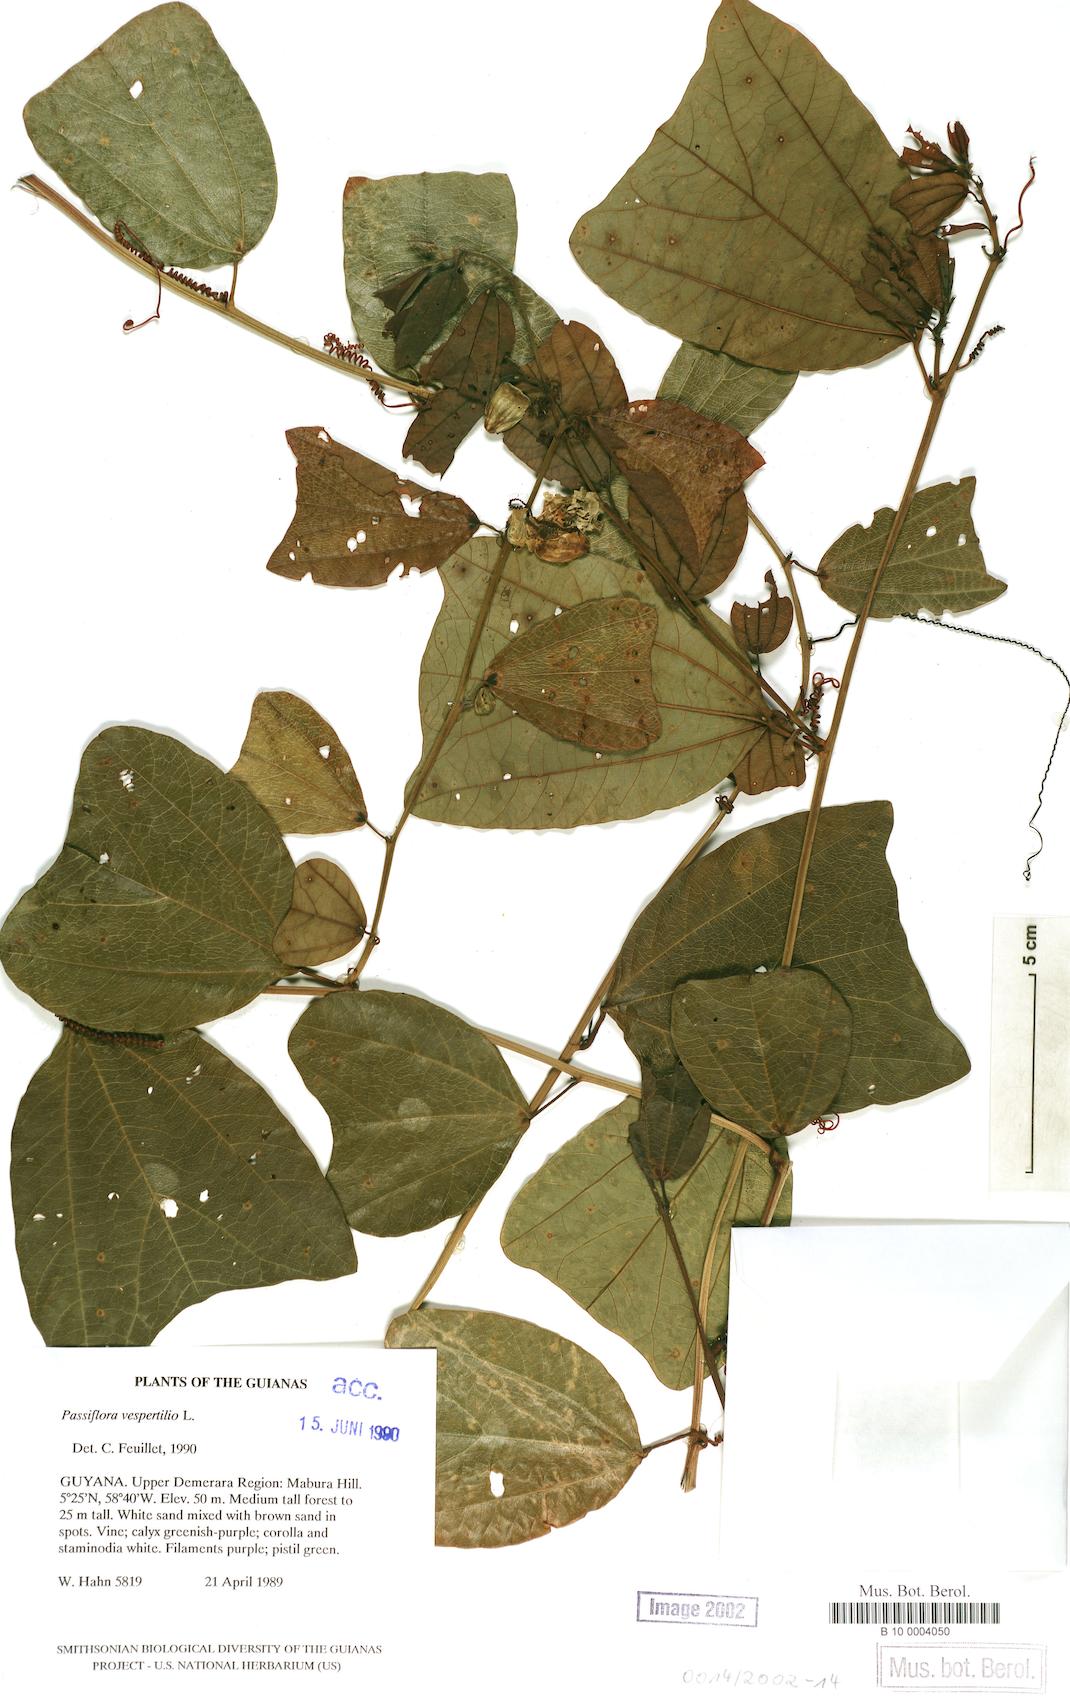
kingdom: Plantae
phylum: Tracheophyta
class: Magnoliopsida
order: Malpighiales
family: Passifloraceae
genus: Passiflora
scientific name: Passiflora vespertilio
